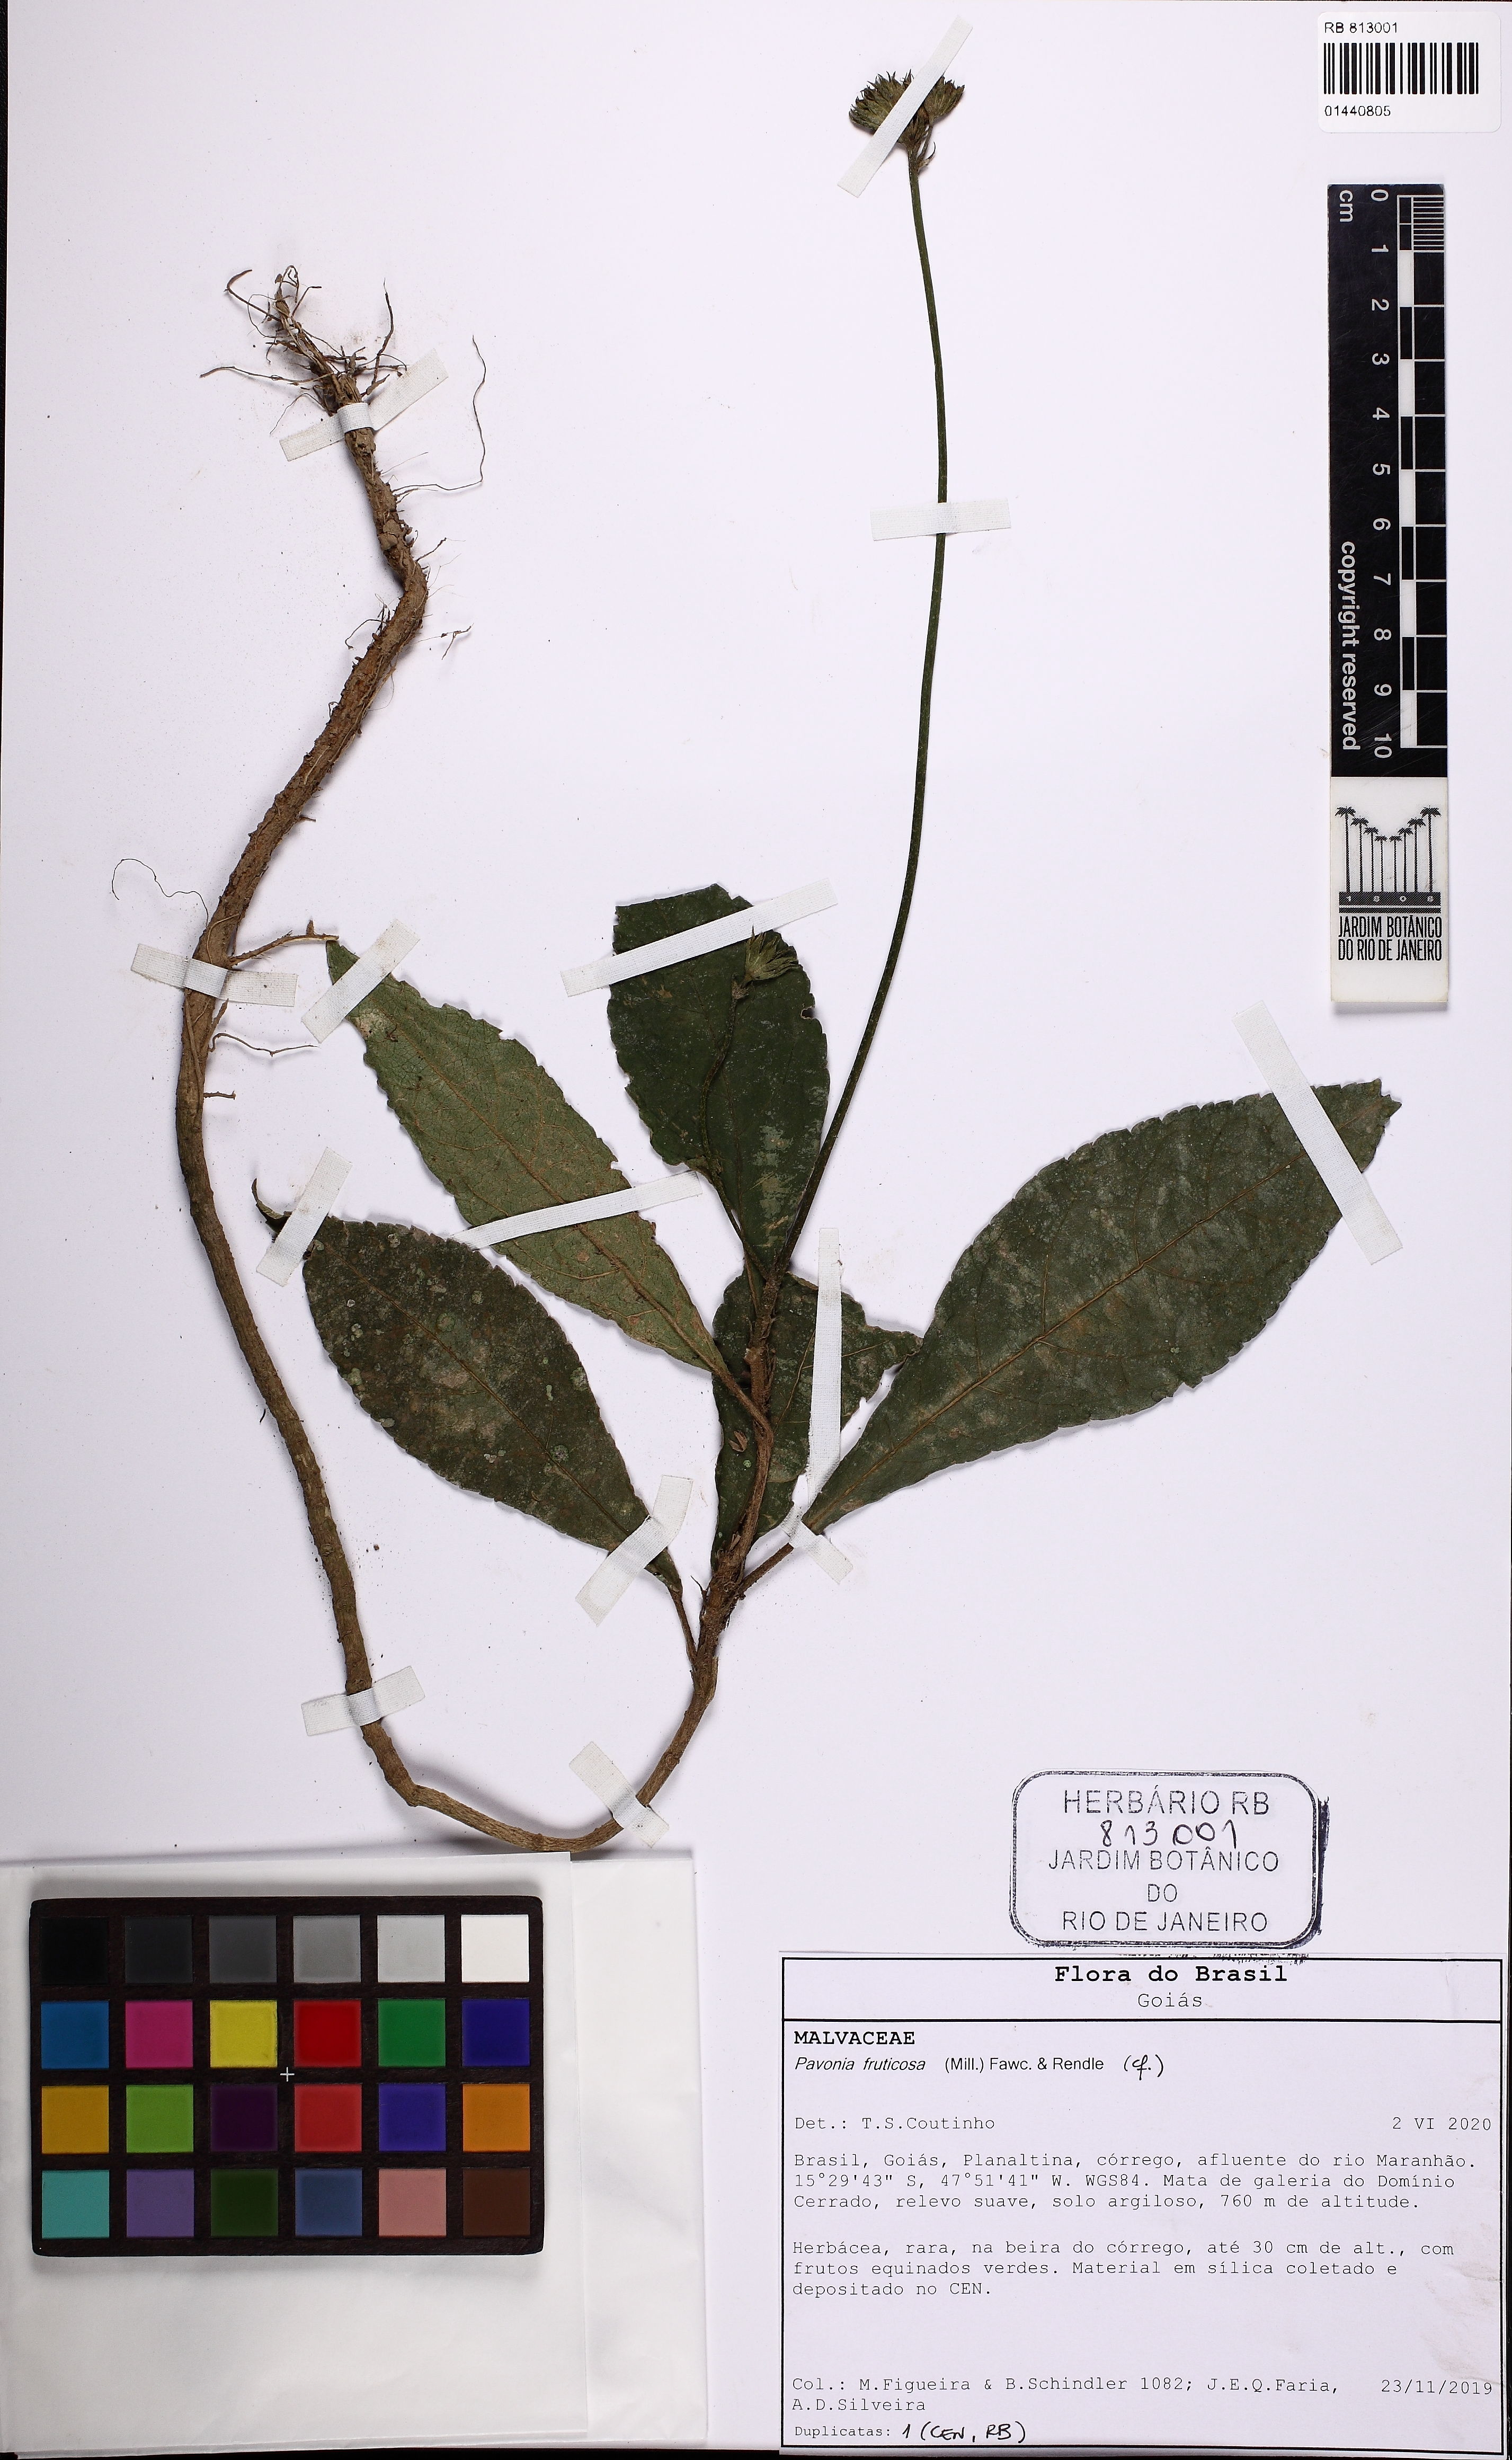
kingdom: Plantae
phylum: Tracheophyta
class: Magnoliopsida
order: Malvales
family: Malvaceae
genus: Pavonia
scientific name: Pavonia fruticosa
